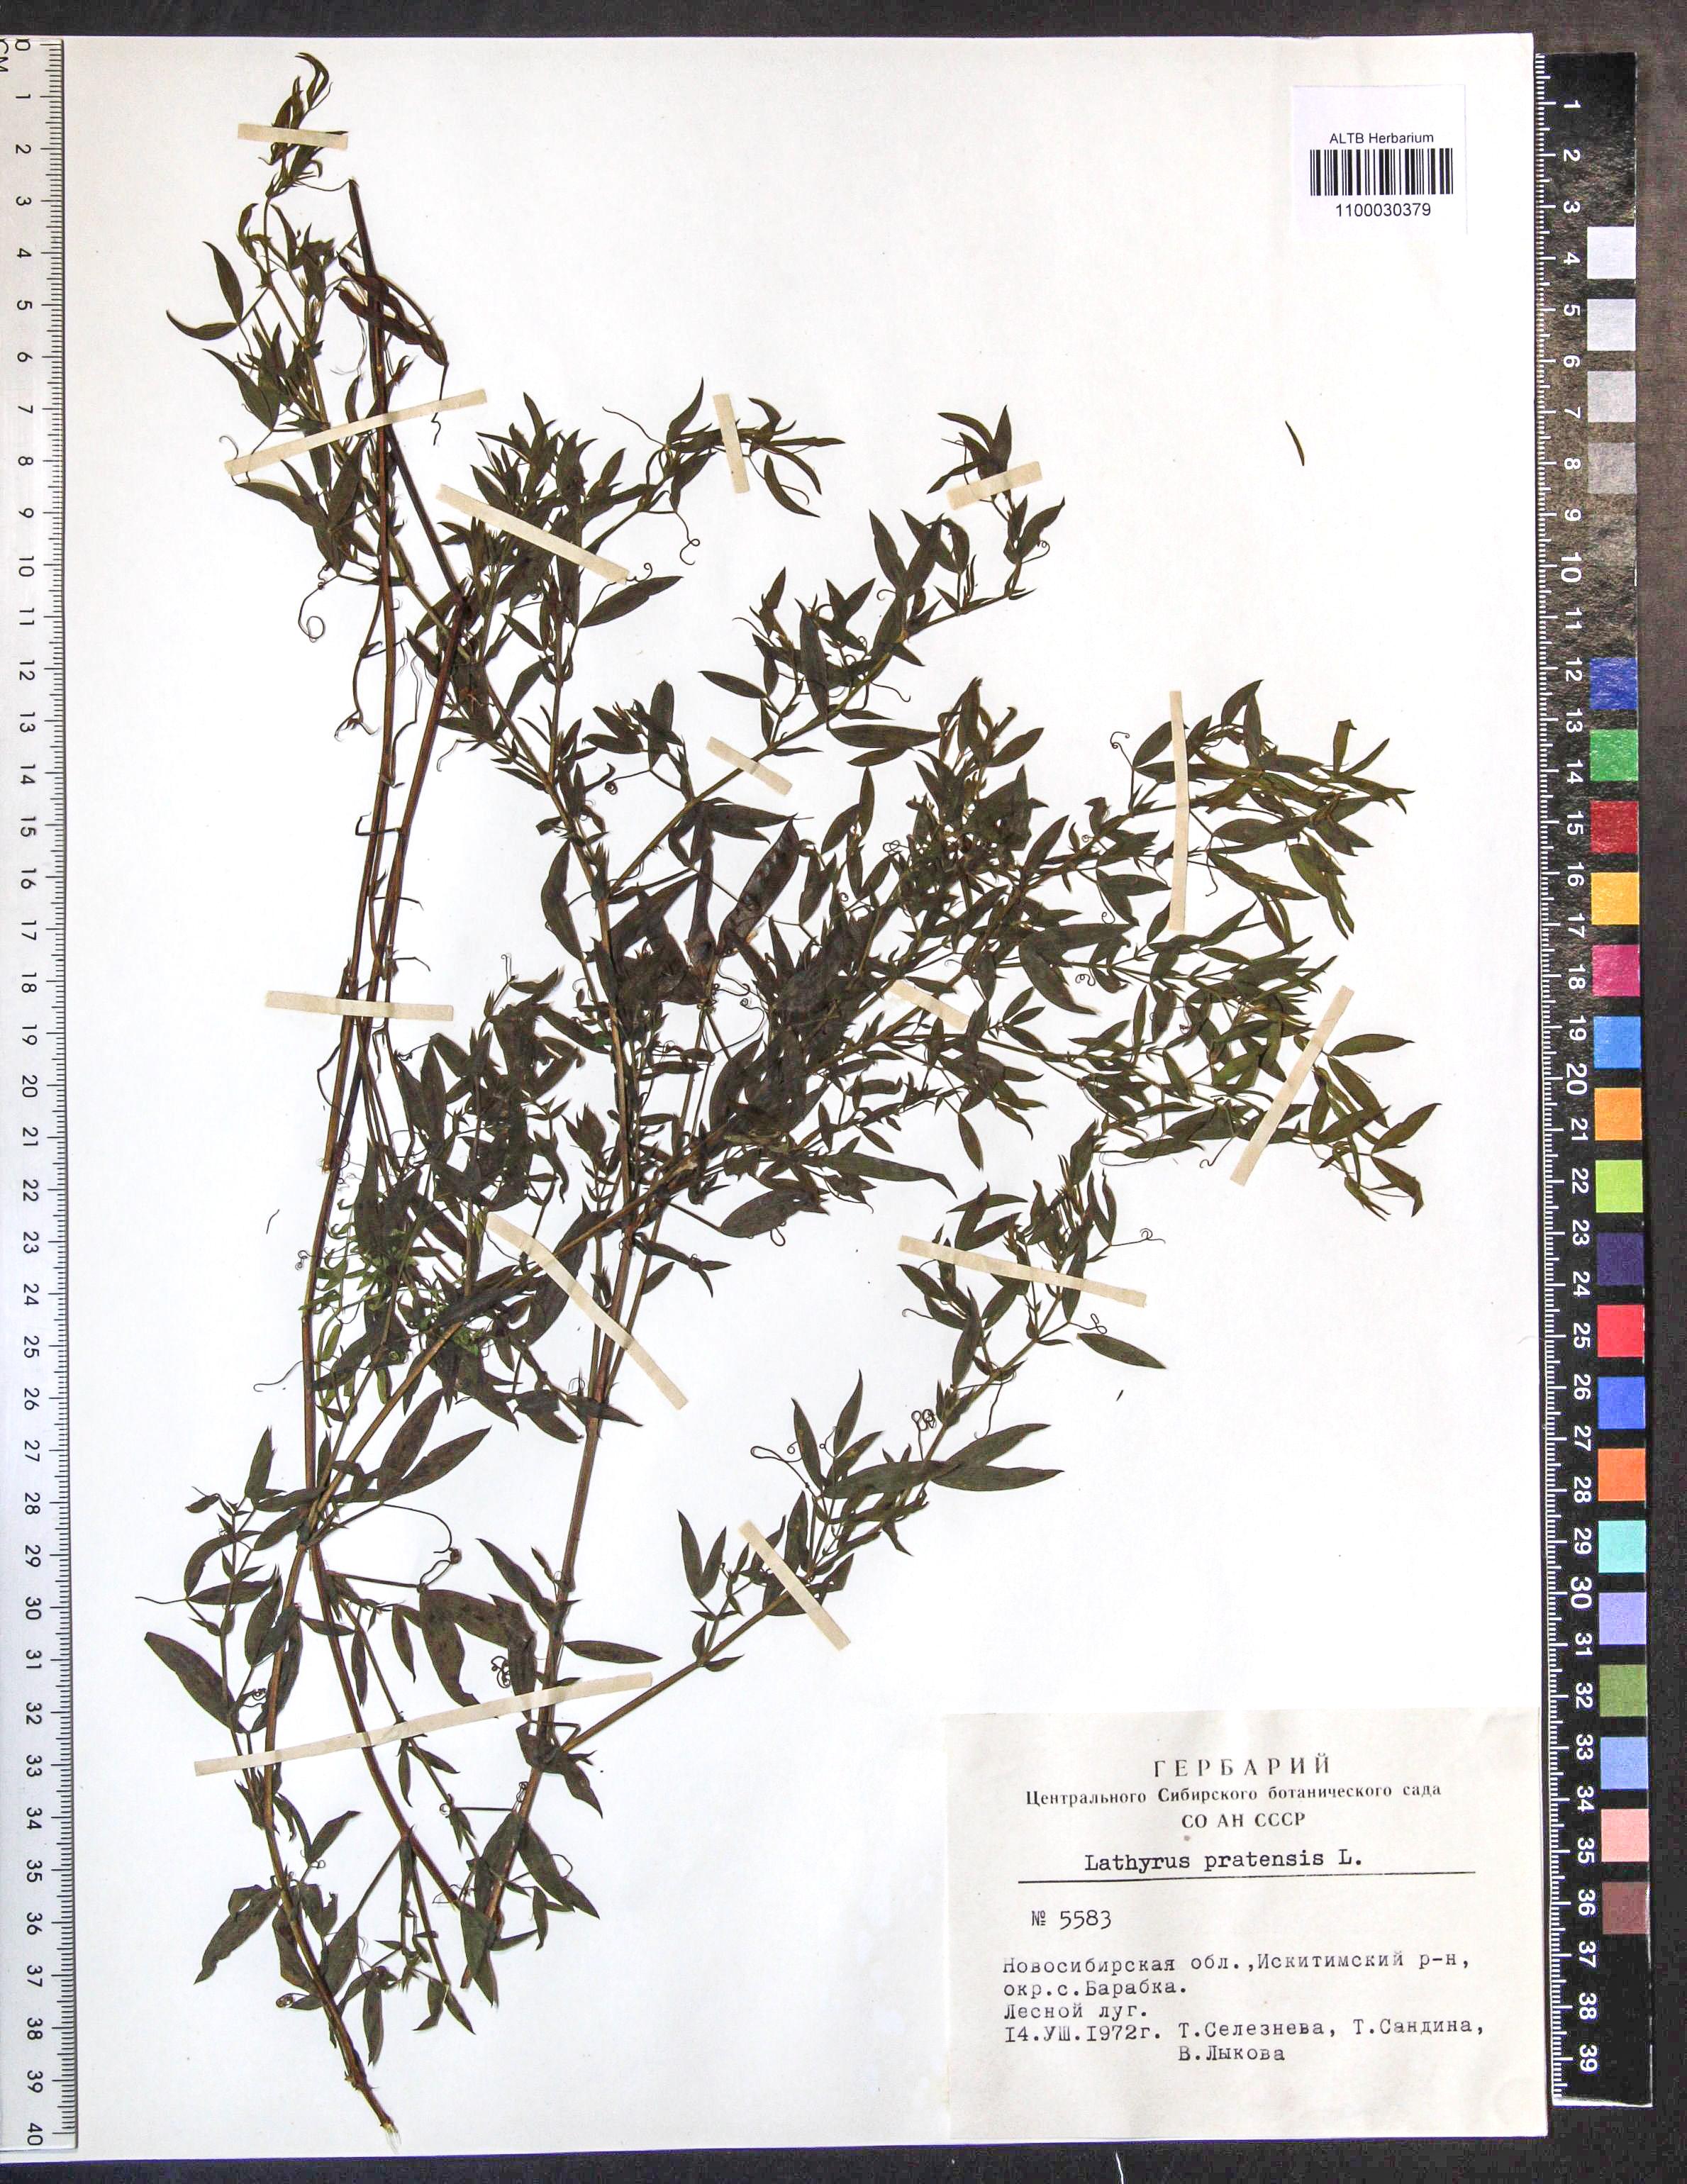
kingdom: Plantae
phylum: Tracheophyta
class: Magnoliopsida
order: Fabales
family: Fabaceae
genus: Lathyrus
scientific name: Lathyrus pratensis
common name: Meadow vetchling
